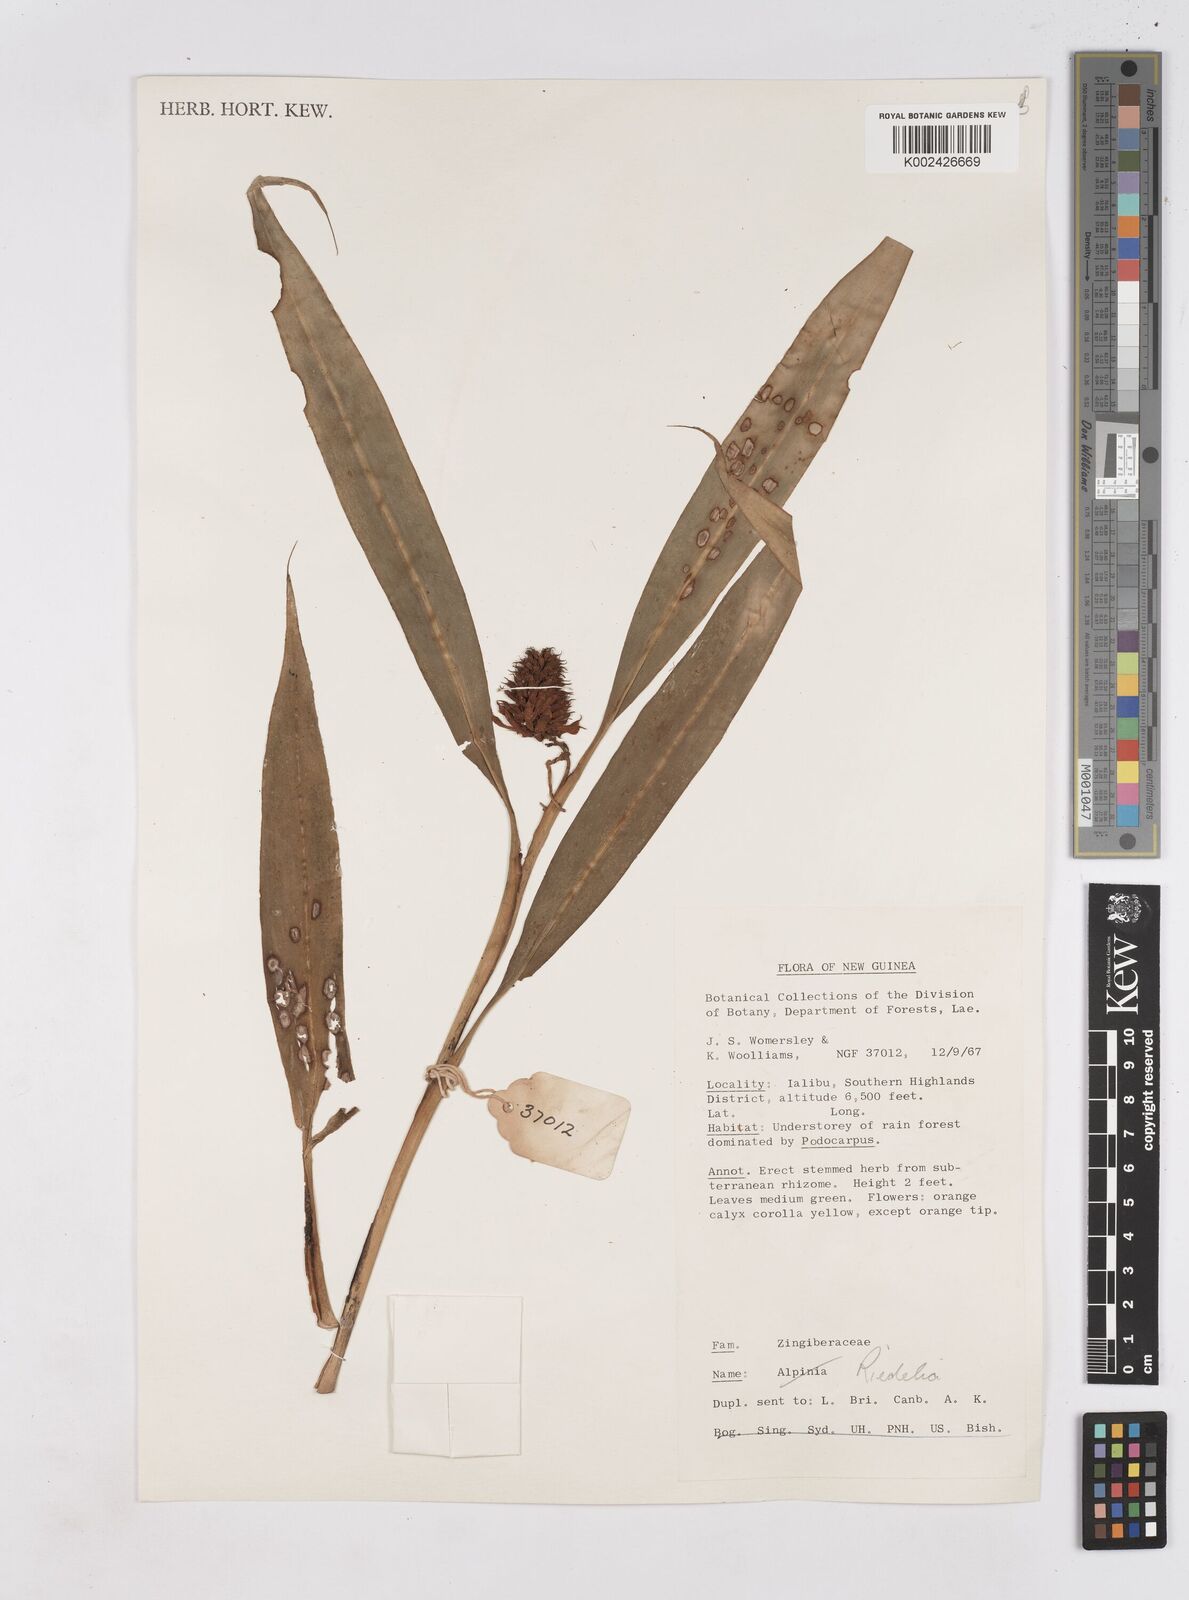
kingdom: Plantae
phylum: Tracheophyta
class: Liliopsida
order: Zingiberales
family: Zingiberaceae
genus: Riedelia
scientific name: Riedelia
